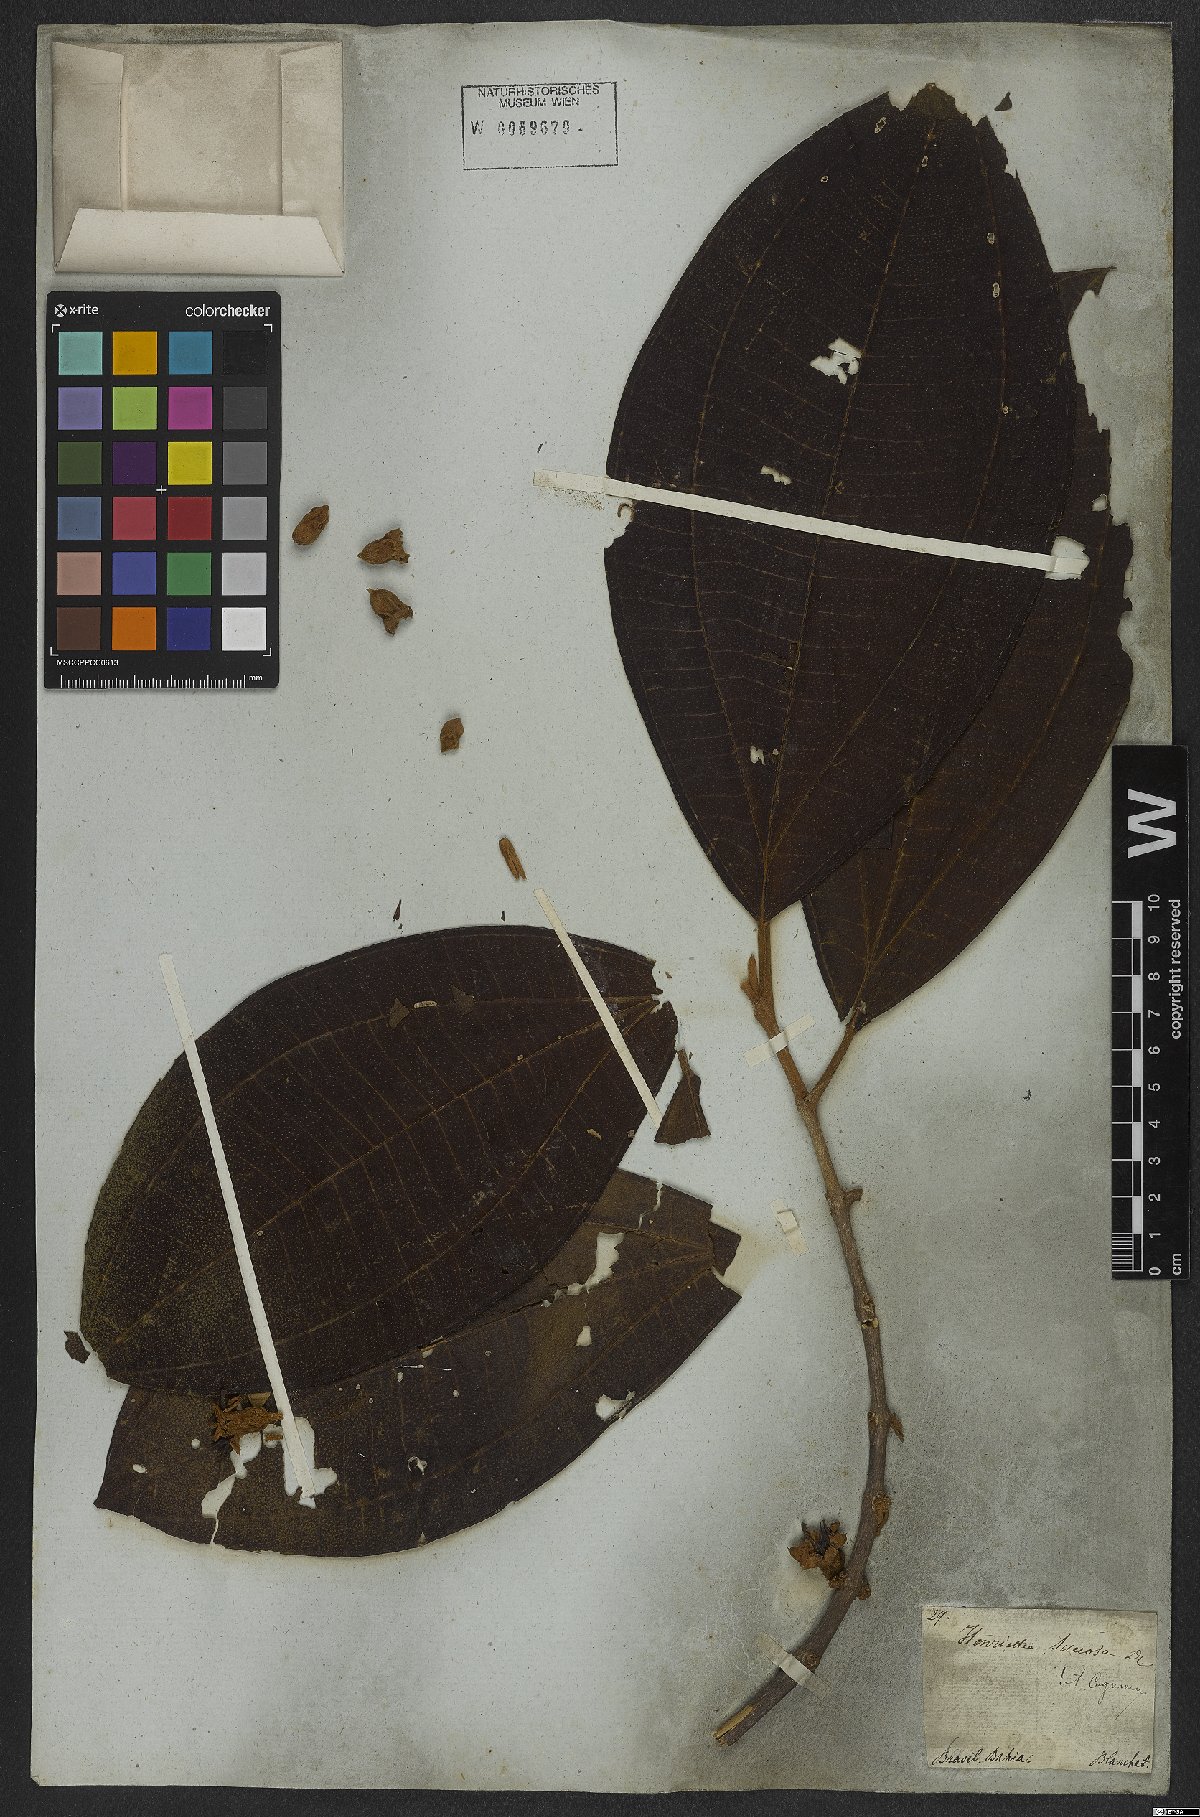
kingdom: Plantae
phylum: Tracheophyta
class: Magnoliopsida
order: Myrtales
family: Melastomataceae
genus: Henriettea
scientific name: Henriettea succosa
